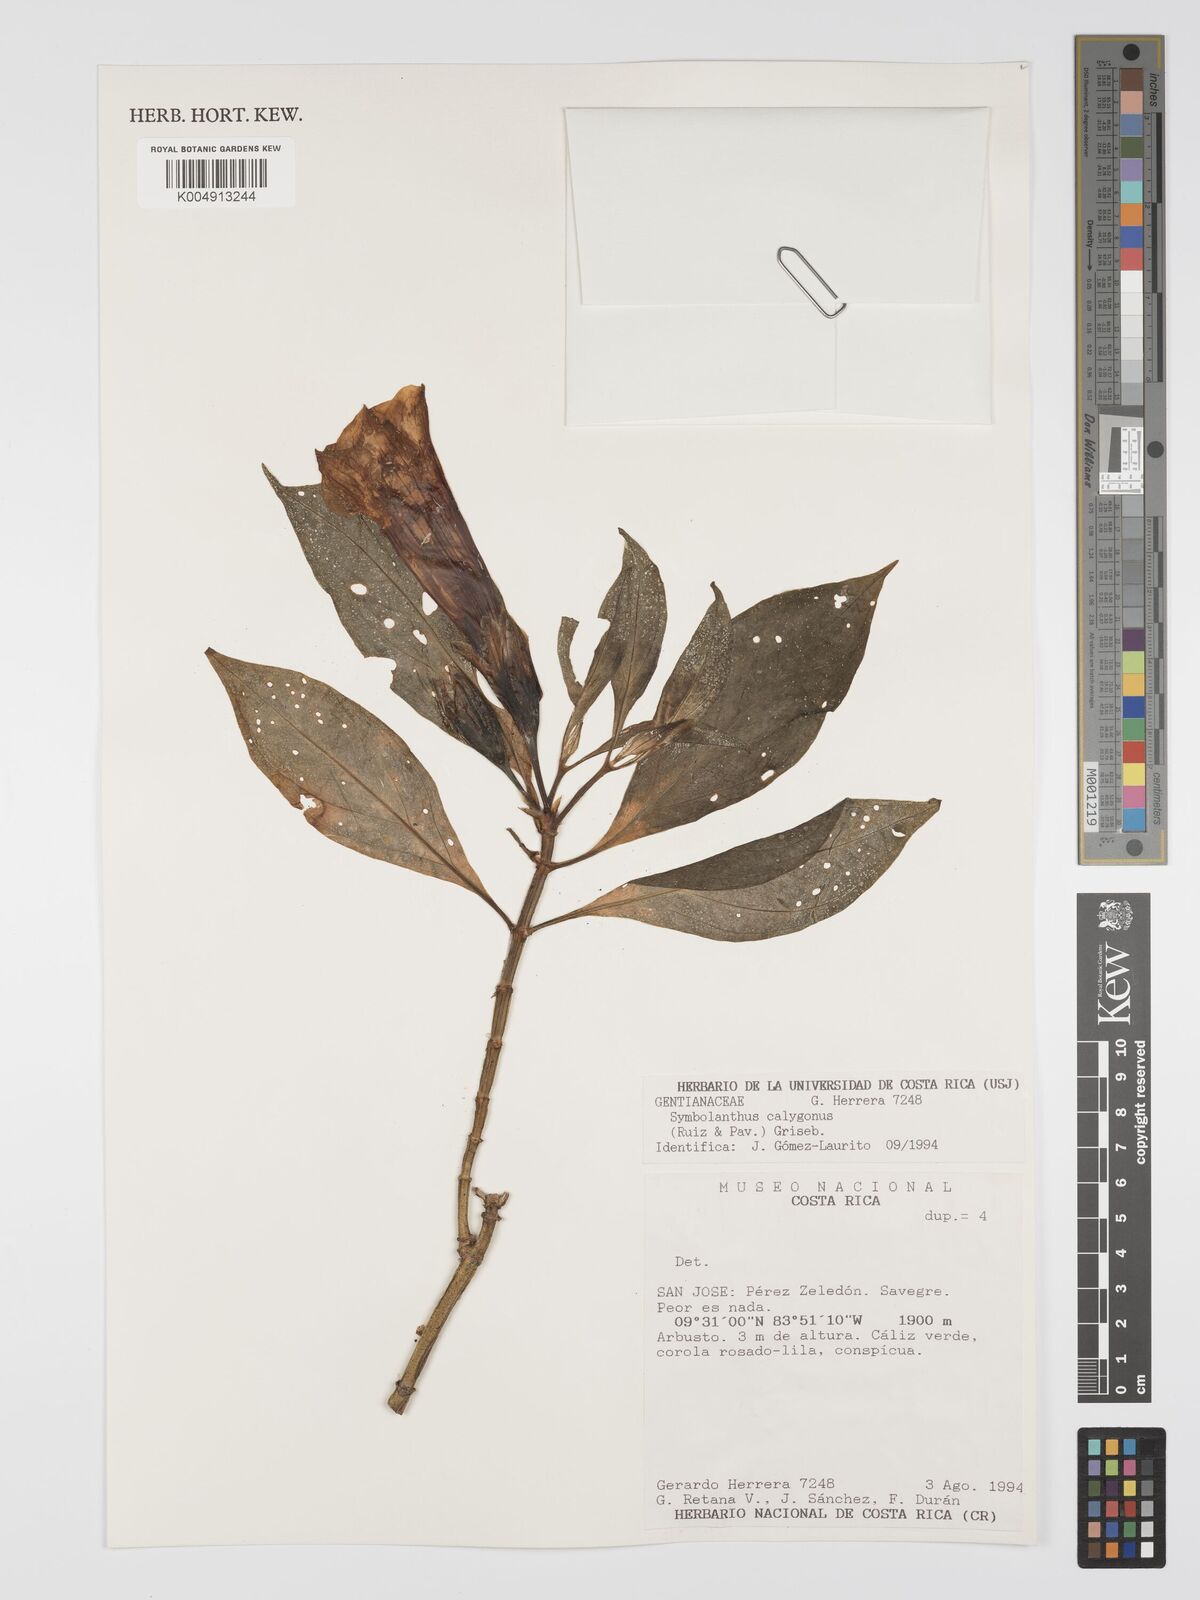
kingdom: Plantae
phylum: Tracheophyta
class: Magnoliopsida
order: Gentianales
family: Gentianaceae
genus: Symbolanthus
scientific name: Symbolanthus calygonus
